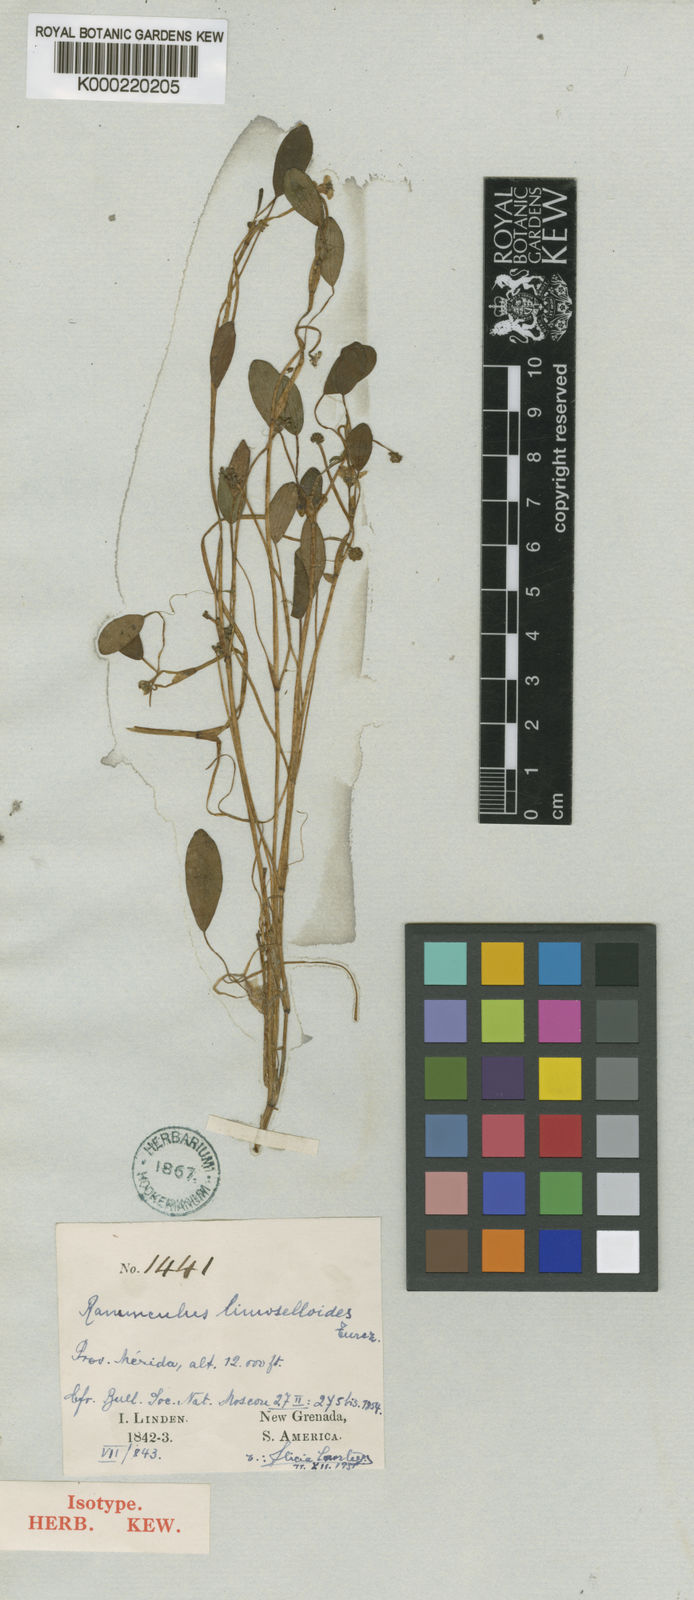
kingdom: Plantae
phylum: Tracheophyta
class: Magnoliopsida
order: Ranunculales
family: Ranunculaceae
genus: Ranunculus
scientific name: Ranunculus limoselloides
